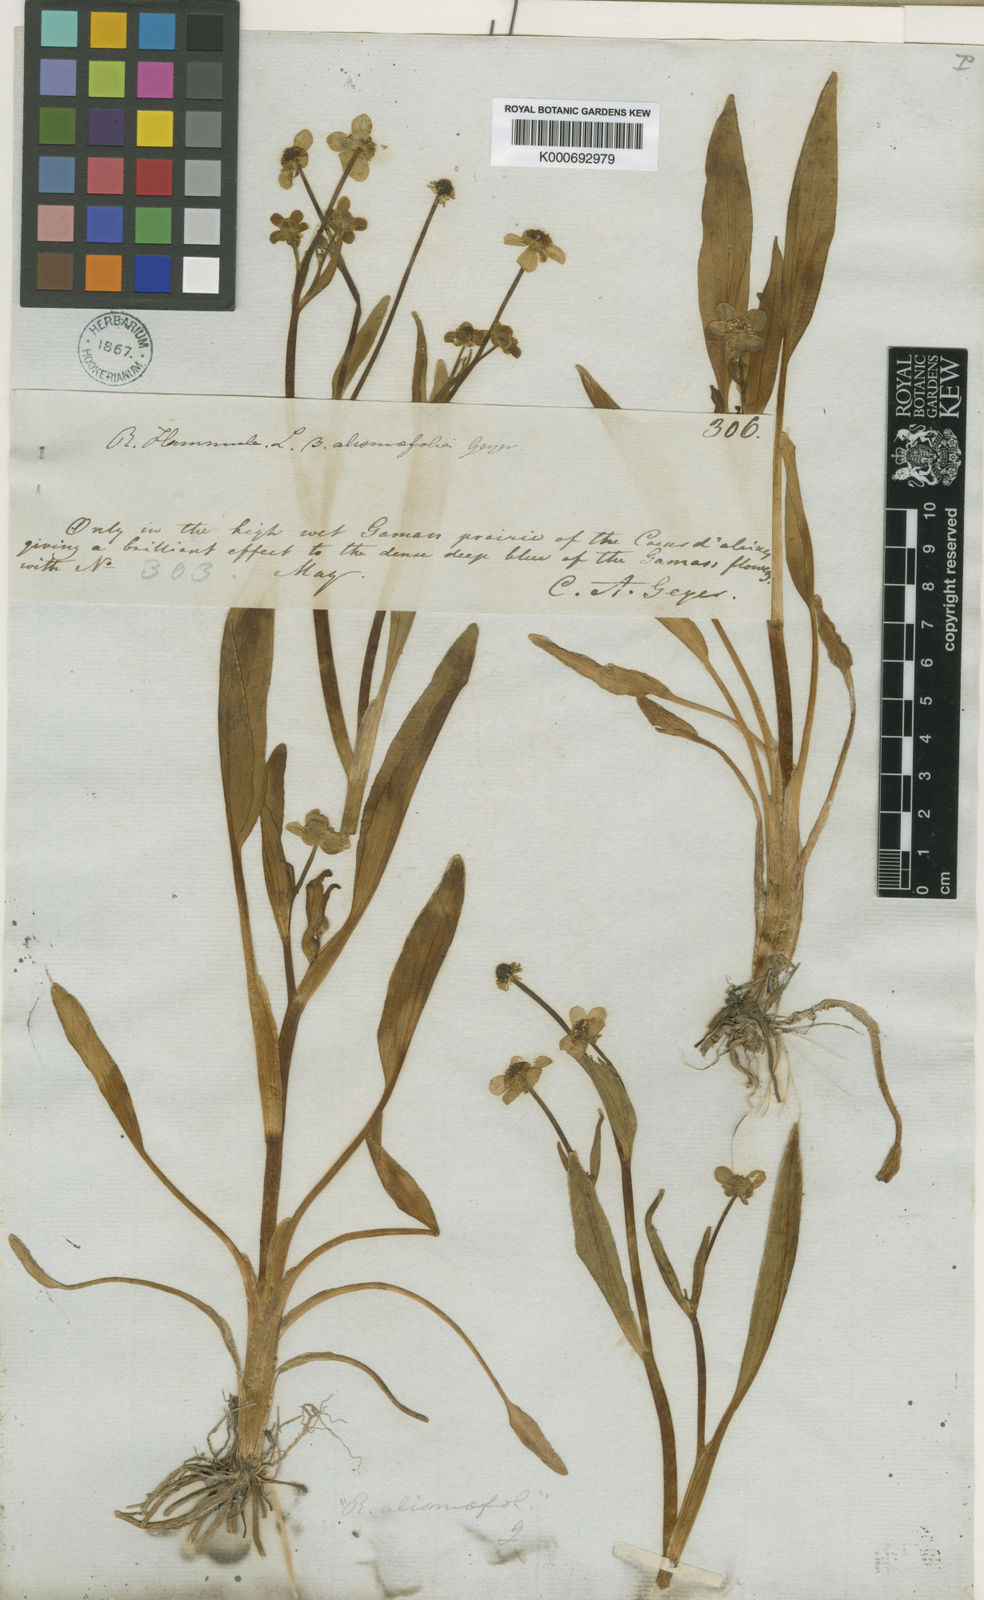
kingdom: Plantae
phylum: Tracheophyta
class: Magnoliopsida
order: Ranunculales
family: Ranunculaceae
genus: Ranunculus
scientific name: Ranunculus alismifolius
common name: Plantain-leaved buttercup
